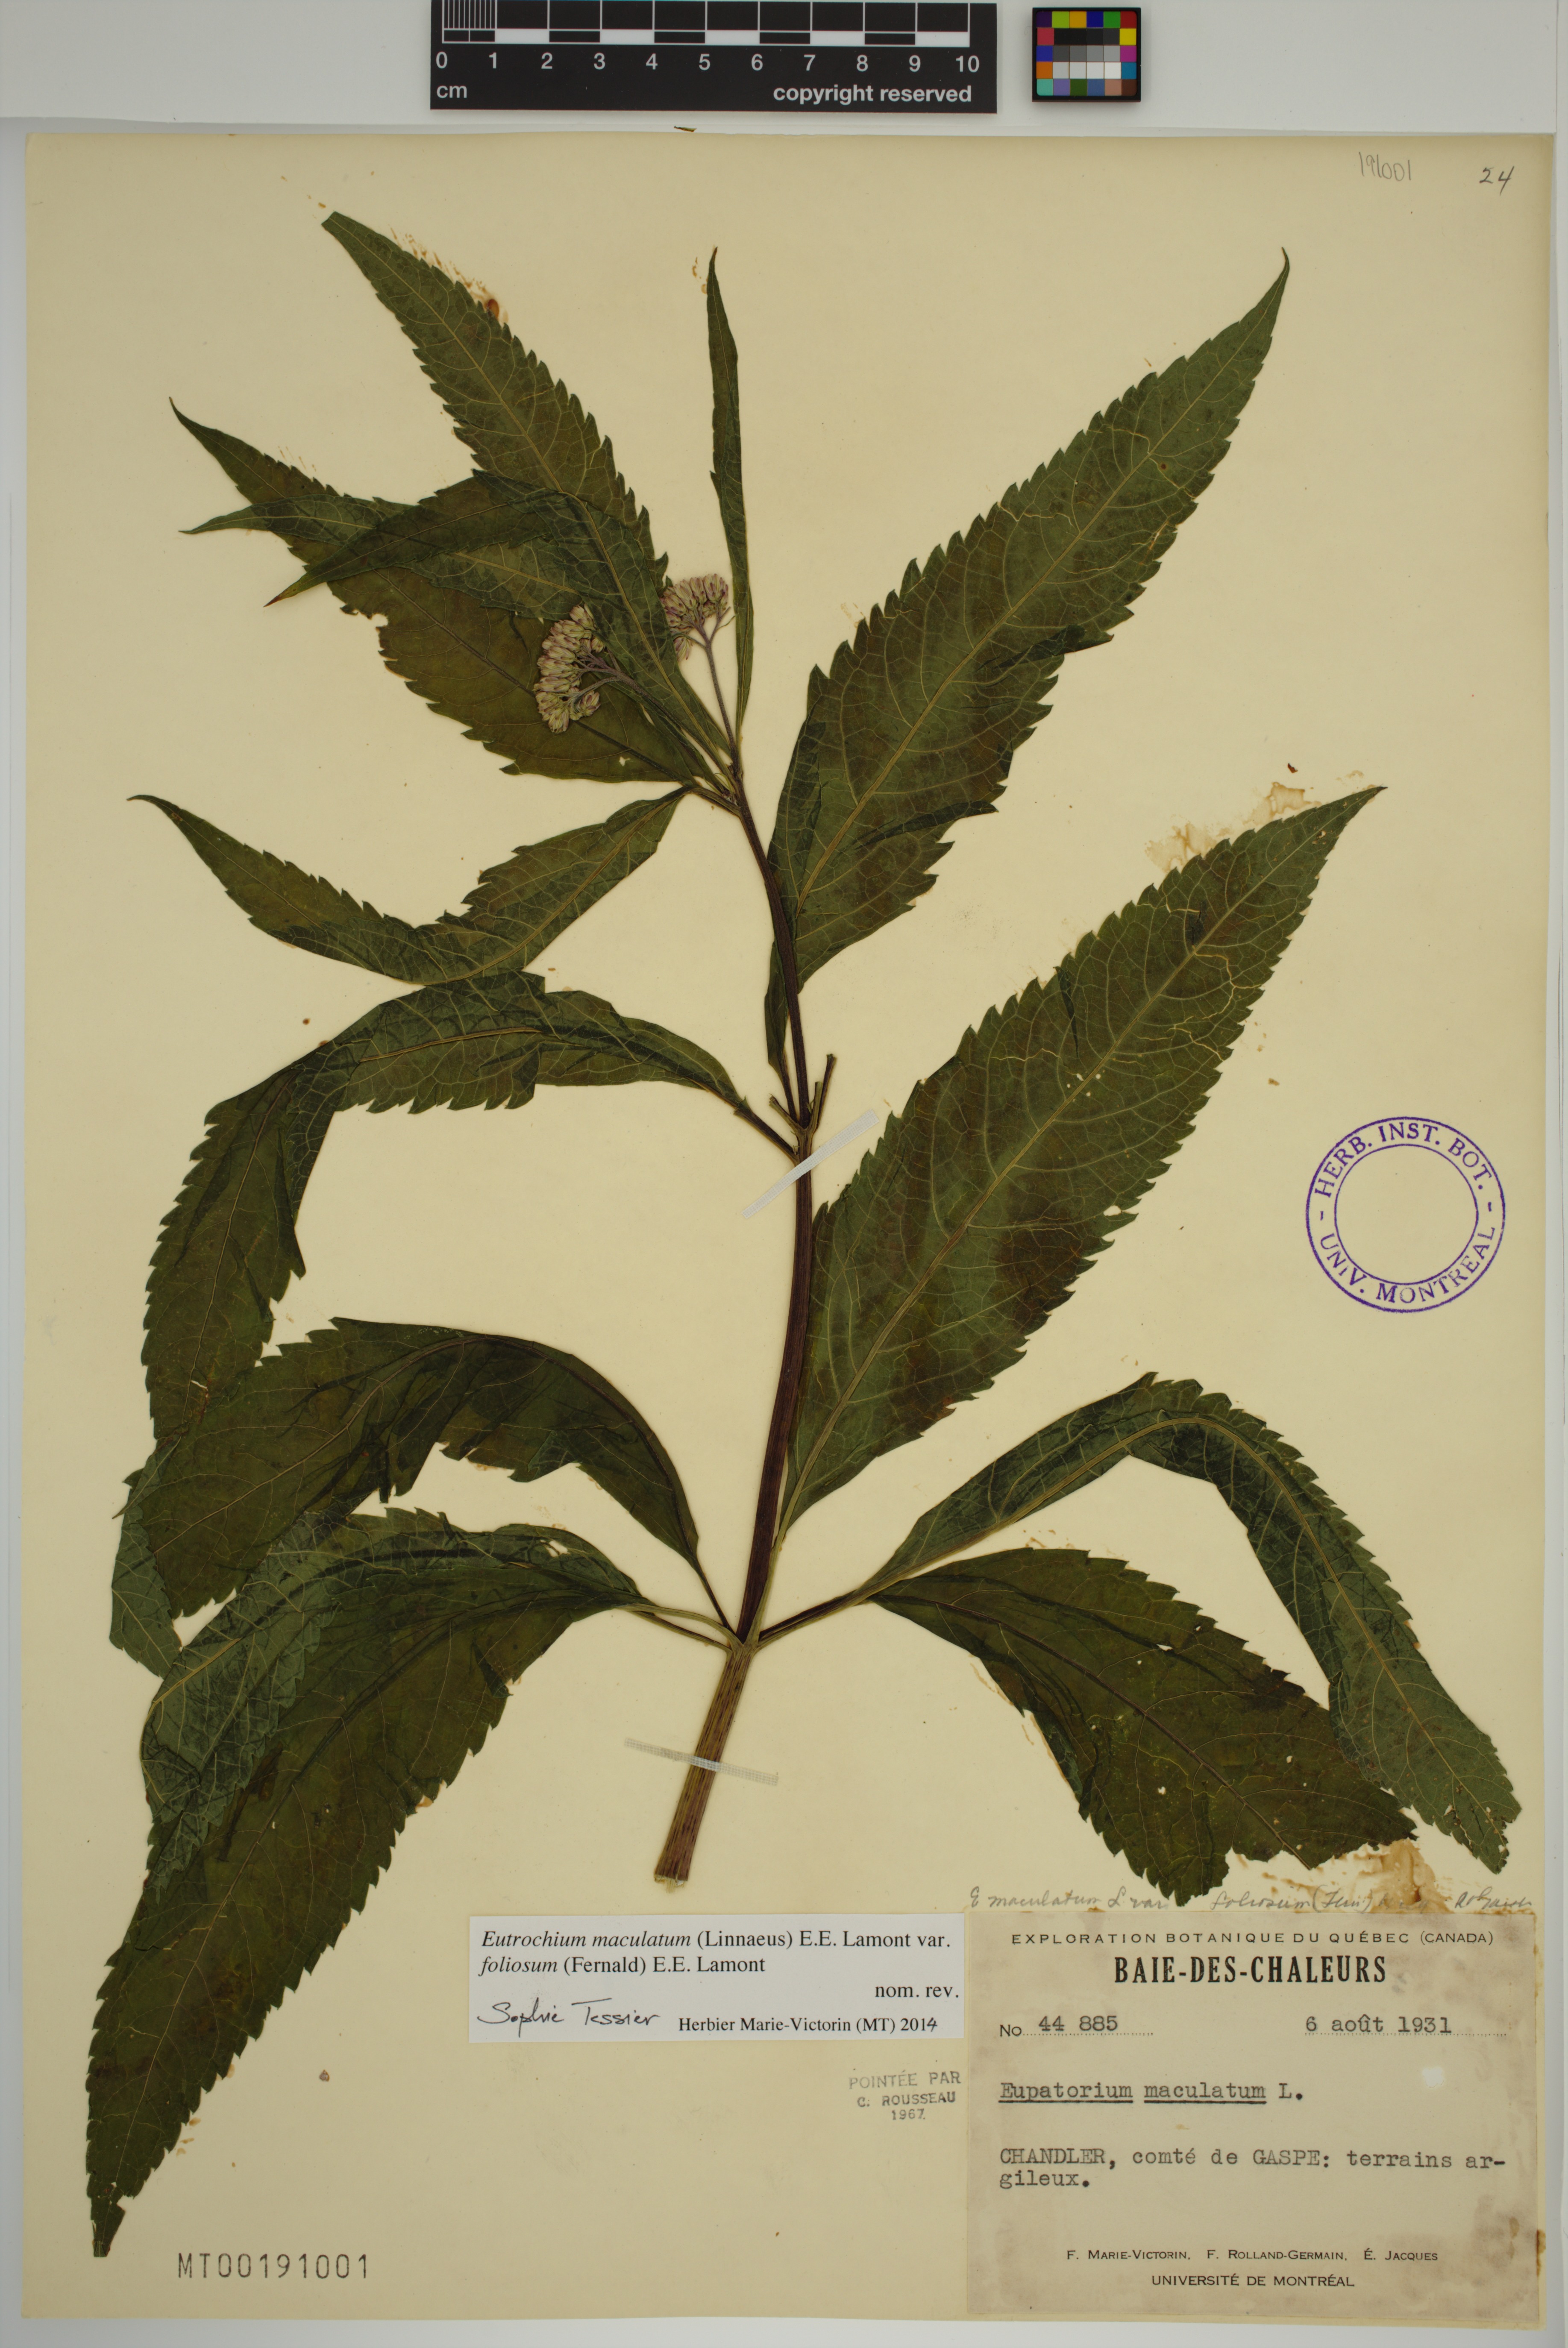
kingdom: Plantae
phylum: Tracheophyta
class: Magnoliopsida
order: Asterales
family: Asteraceae
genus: Eutrochium
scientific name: Eutrochium maculatum
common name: Spotted joe pye weed
